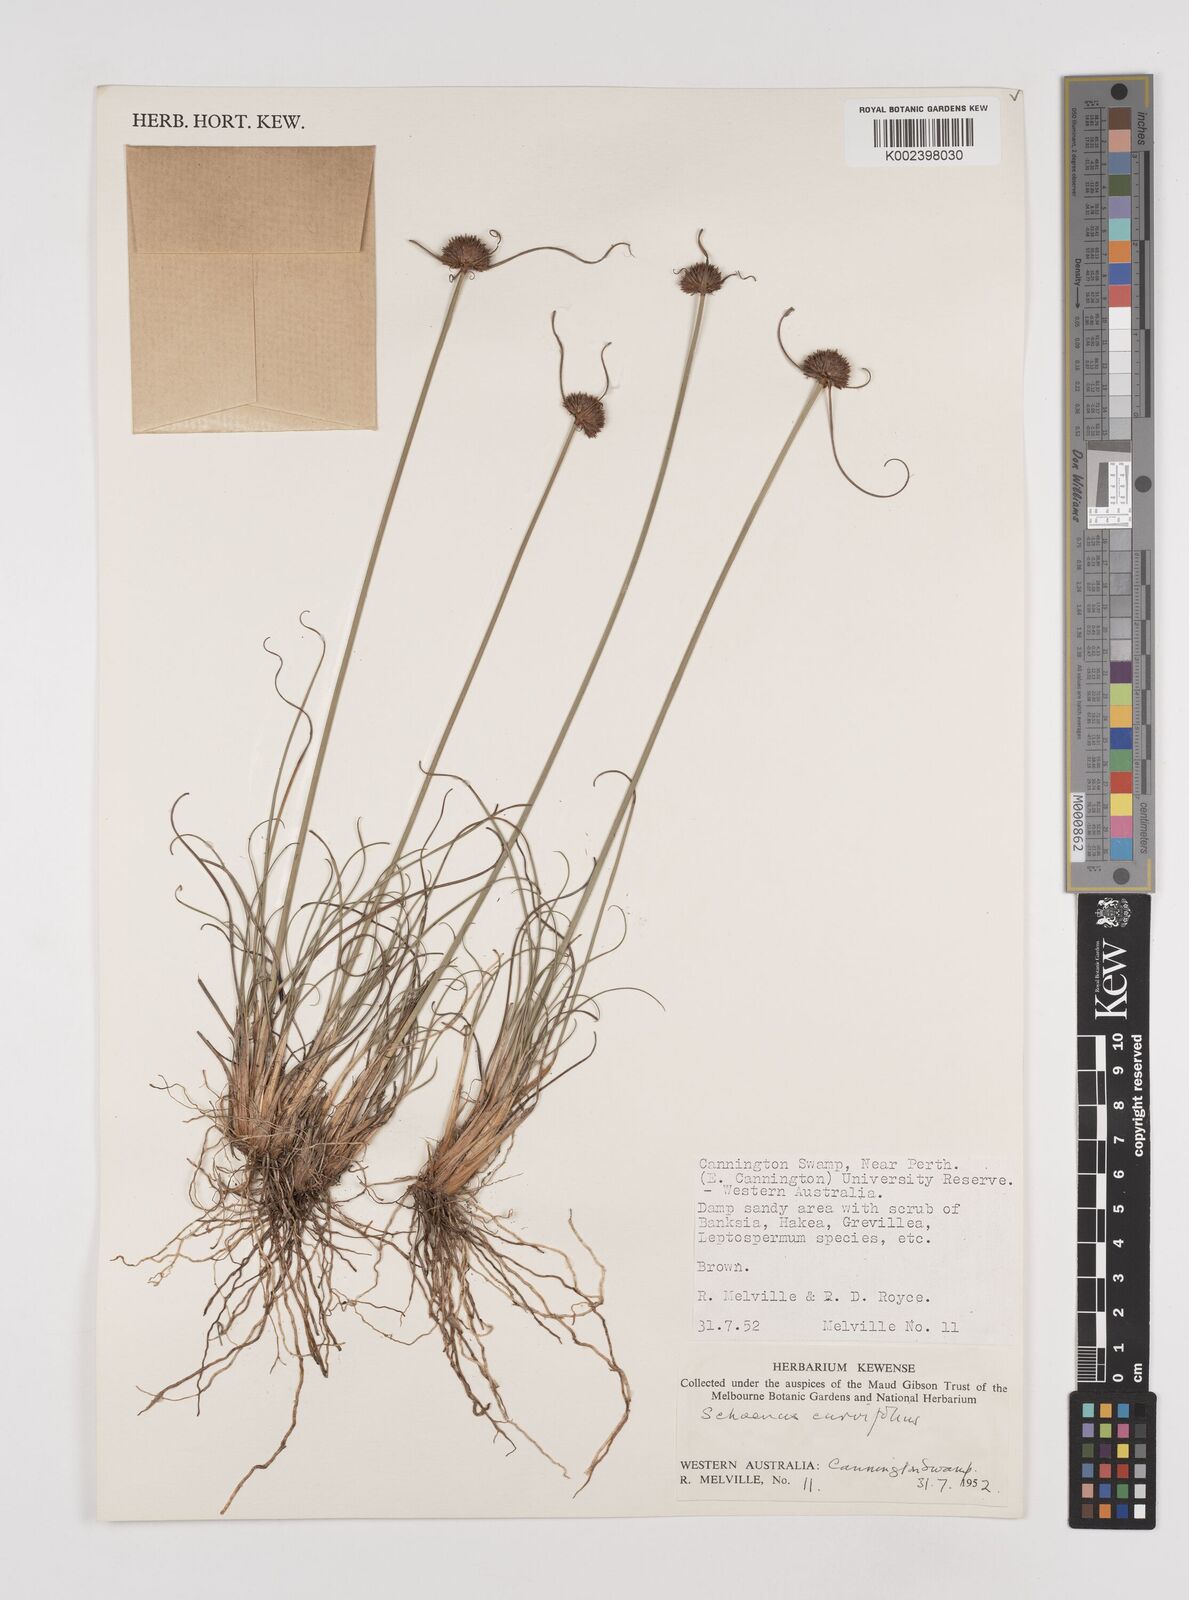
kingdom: Plantae
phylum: Tracheophyta
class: Liliopsida
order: Poales
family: Cyperaceae
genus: Schoenus
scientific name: Schoenus
